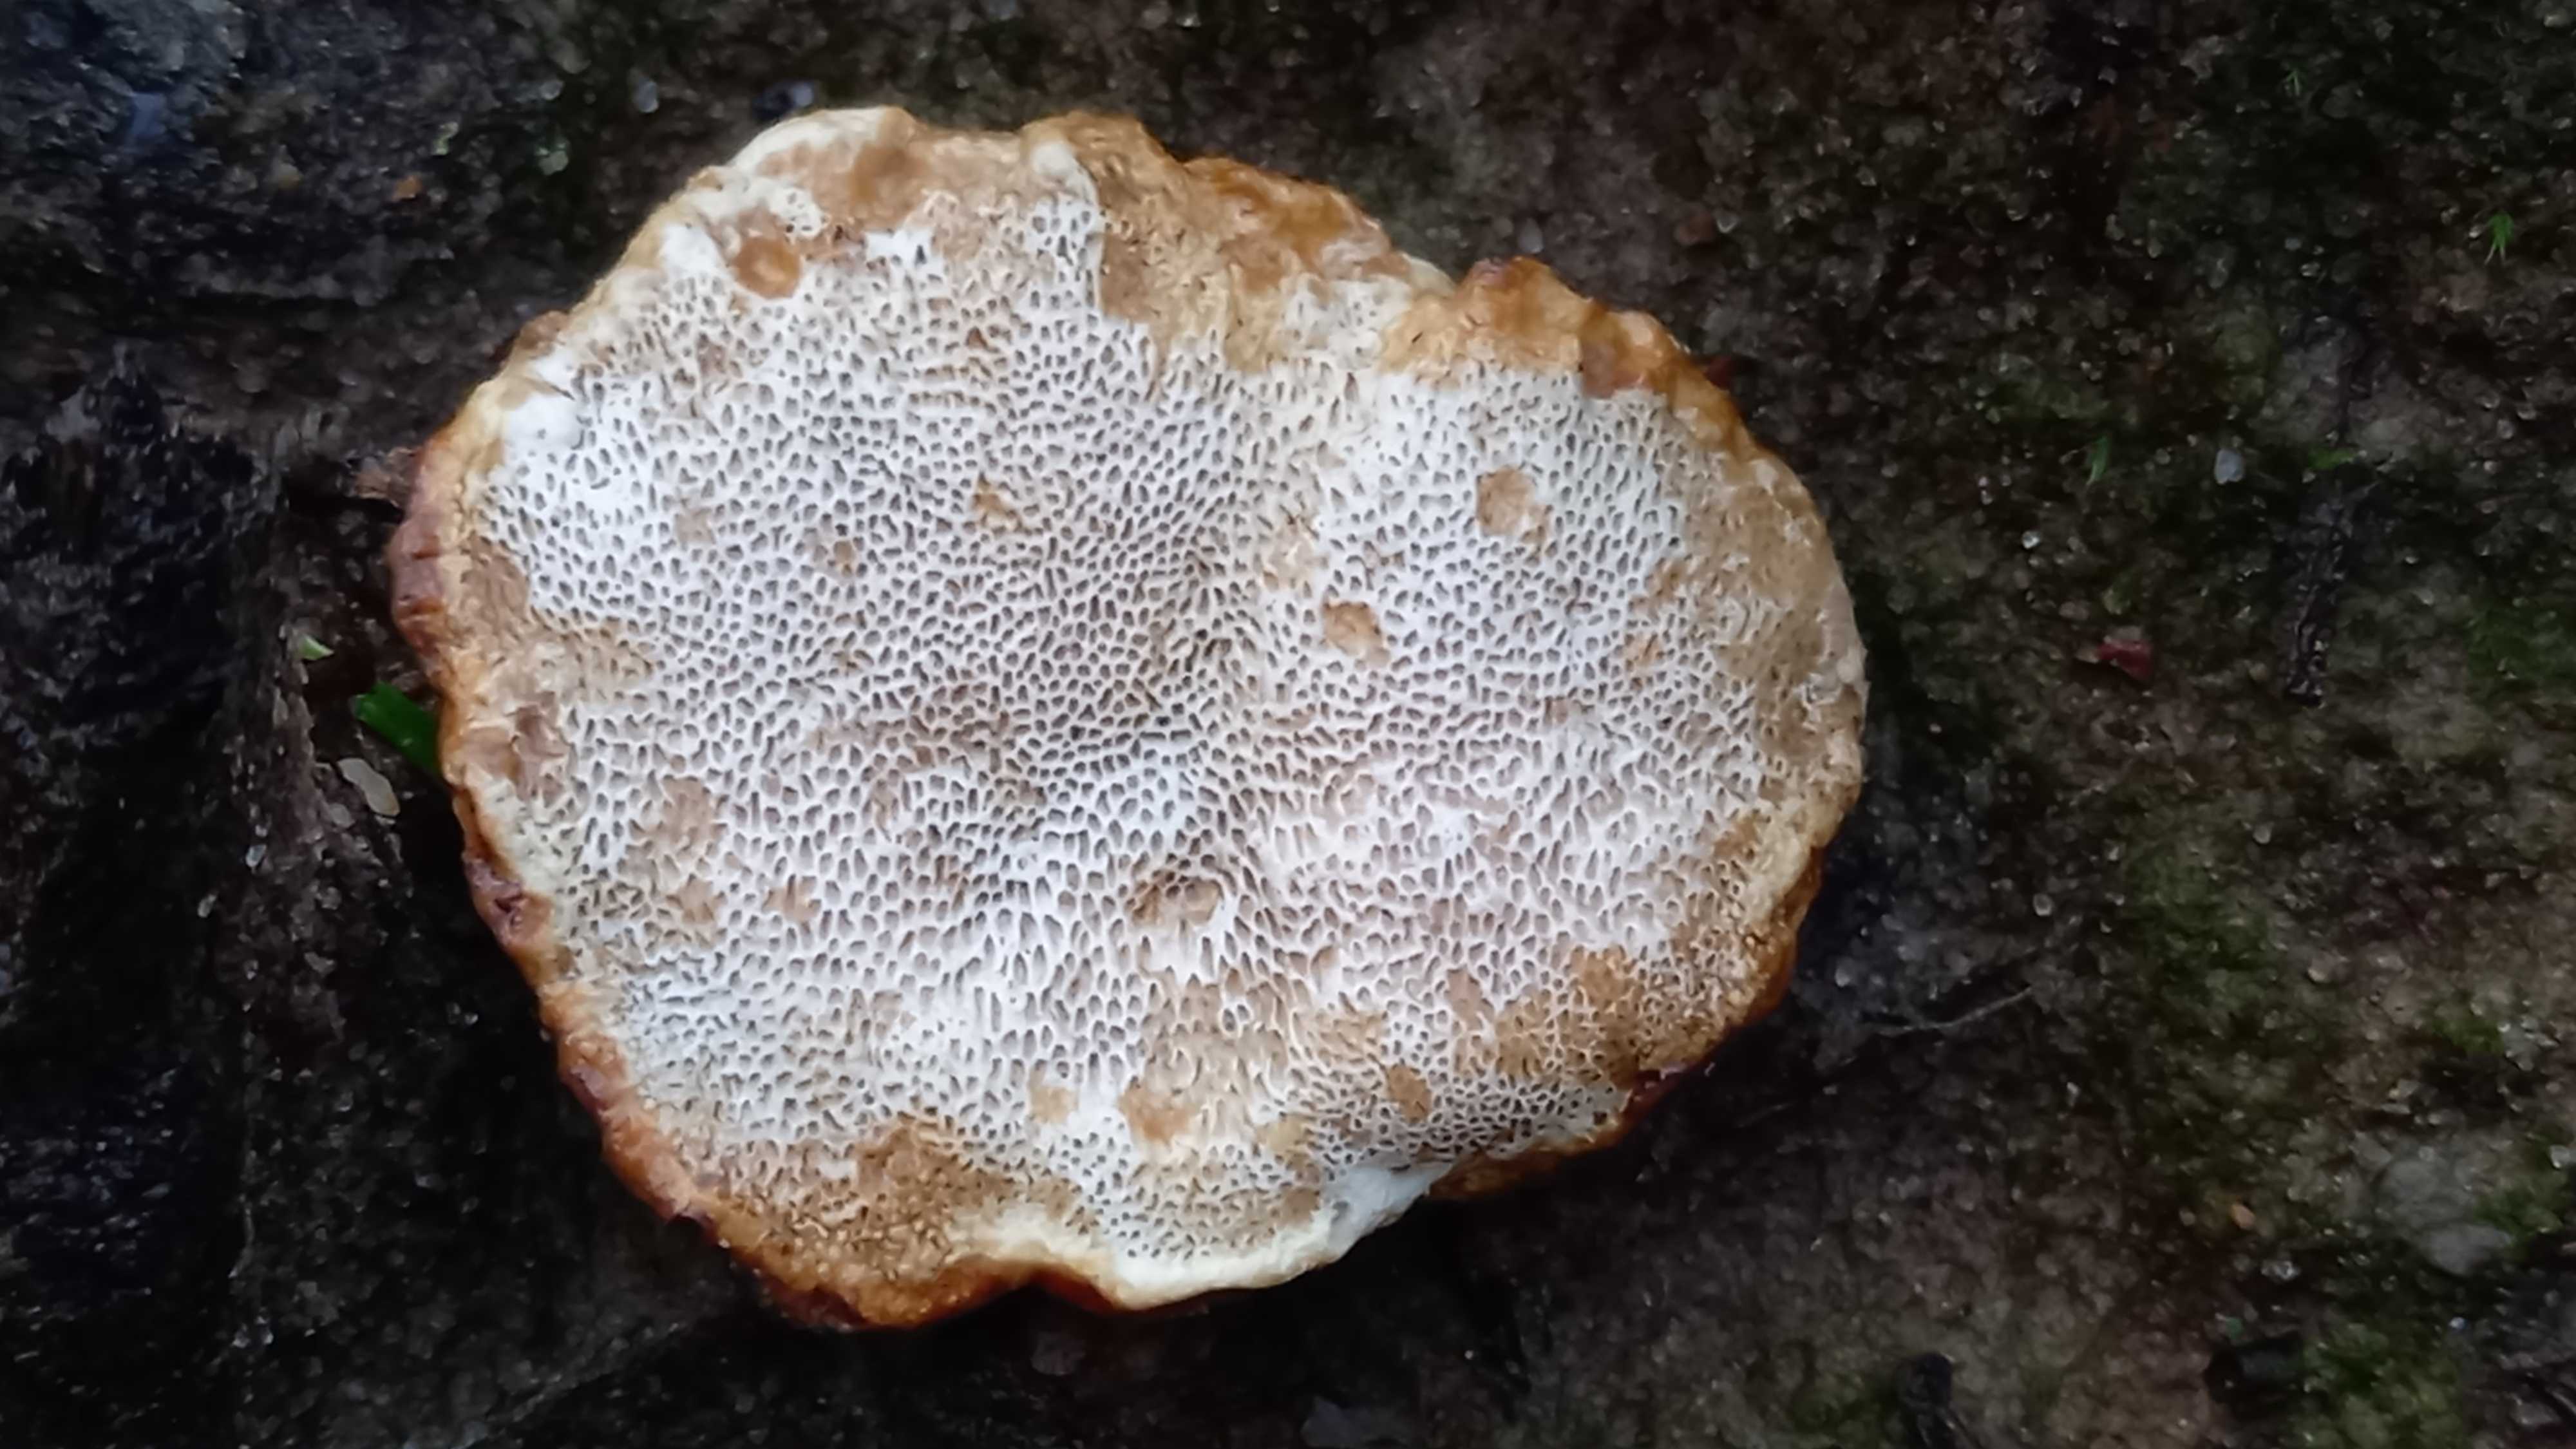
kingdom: Fungi
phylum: Basidiomycota
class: Agaricomycetes
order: Russulales
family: Bondarzewiaceae
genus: Heterobasidion
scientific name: Heterobasidion annosum
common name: almindelig rodfordærver
